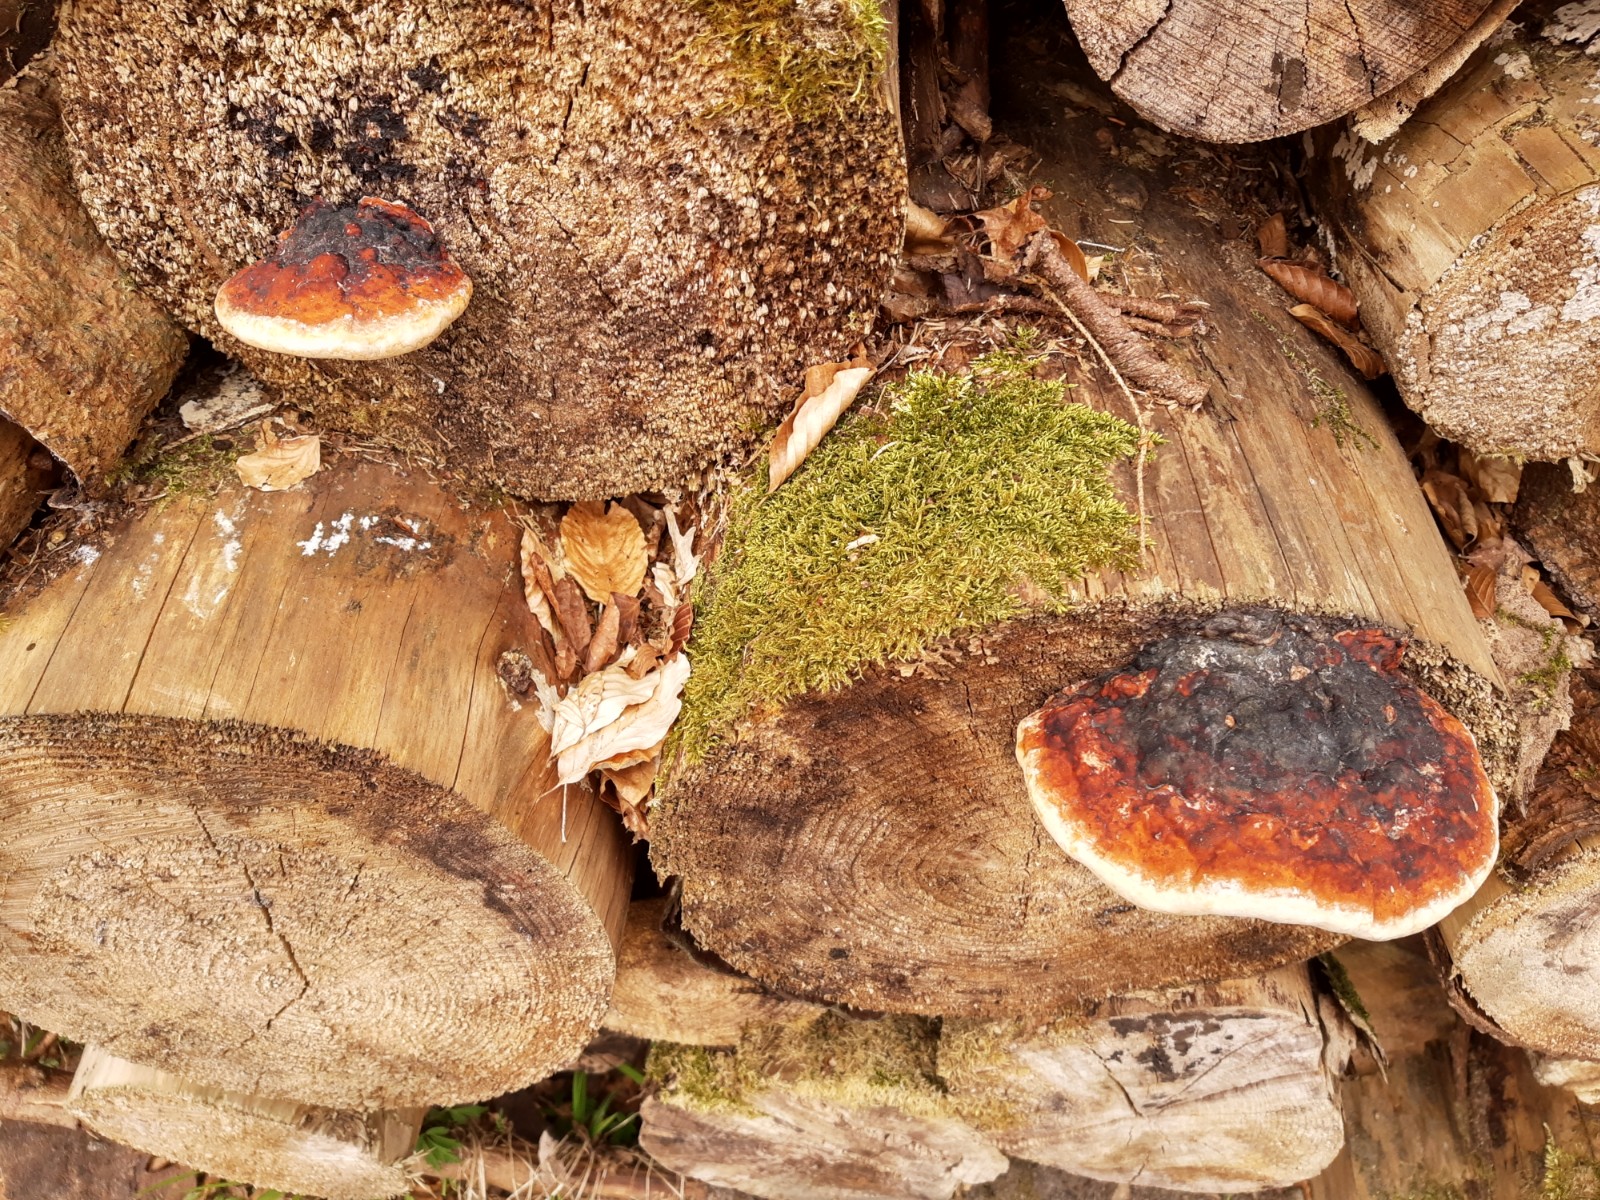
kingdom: Fungi
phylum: Basidiomycota
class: Agaricomycetes
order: Polyporales
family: Fomitopsidaceae
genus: Fomitopsis
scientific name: Fomitopsis pinicola
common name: randbæltet hovporesvamp
